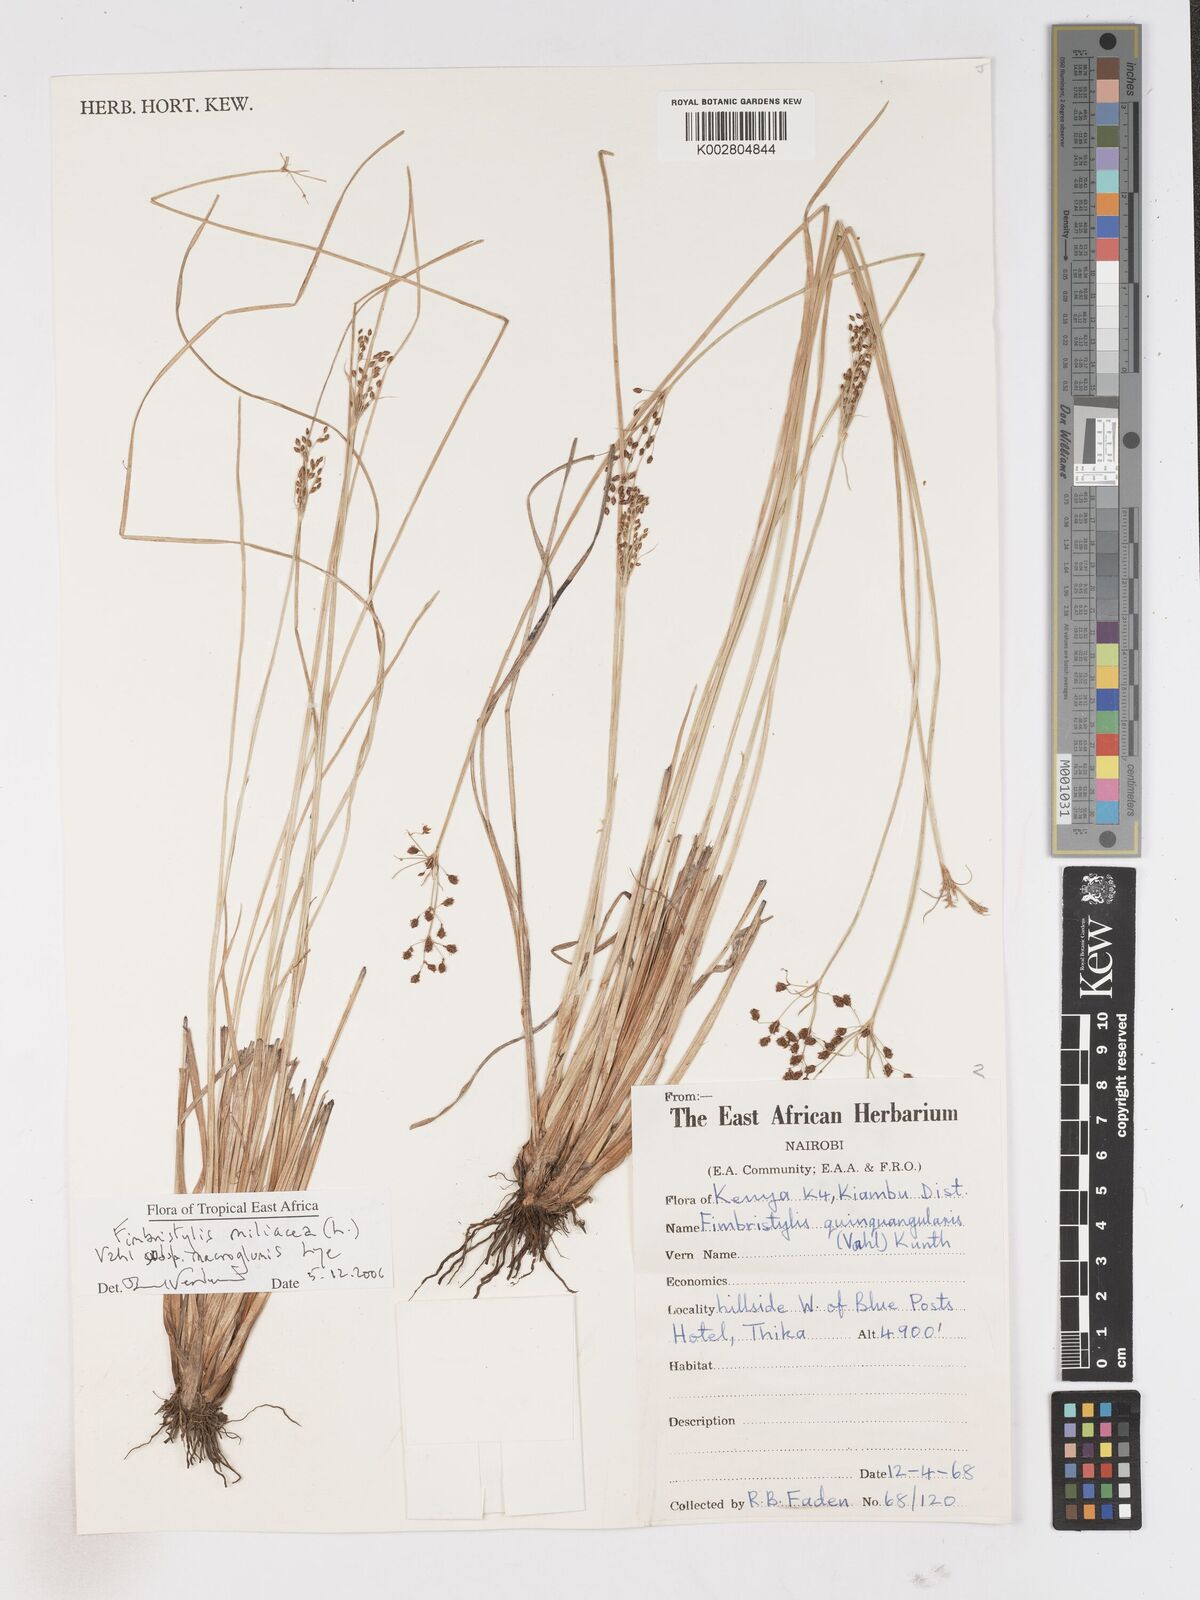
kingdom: Plantae
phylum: Tracheophyta
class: Liliopsida
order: Poales
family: Cyperaceae
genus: Fimbristylis
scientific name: Fimbristylis quinquangularis
